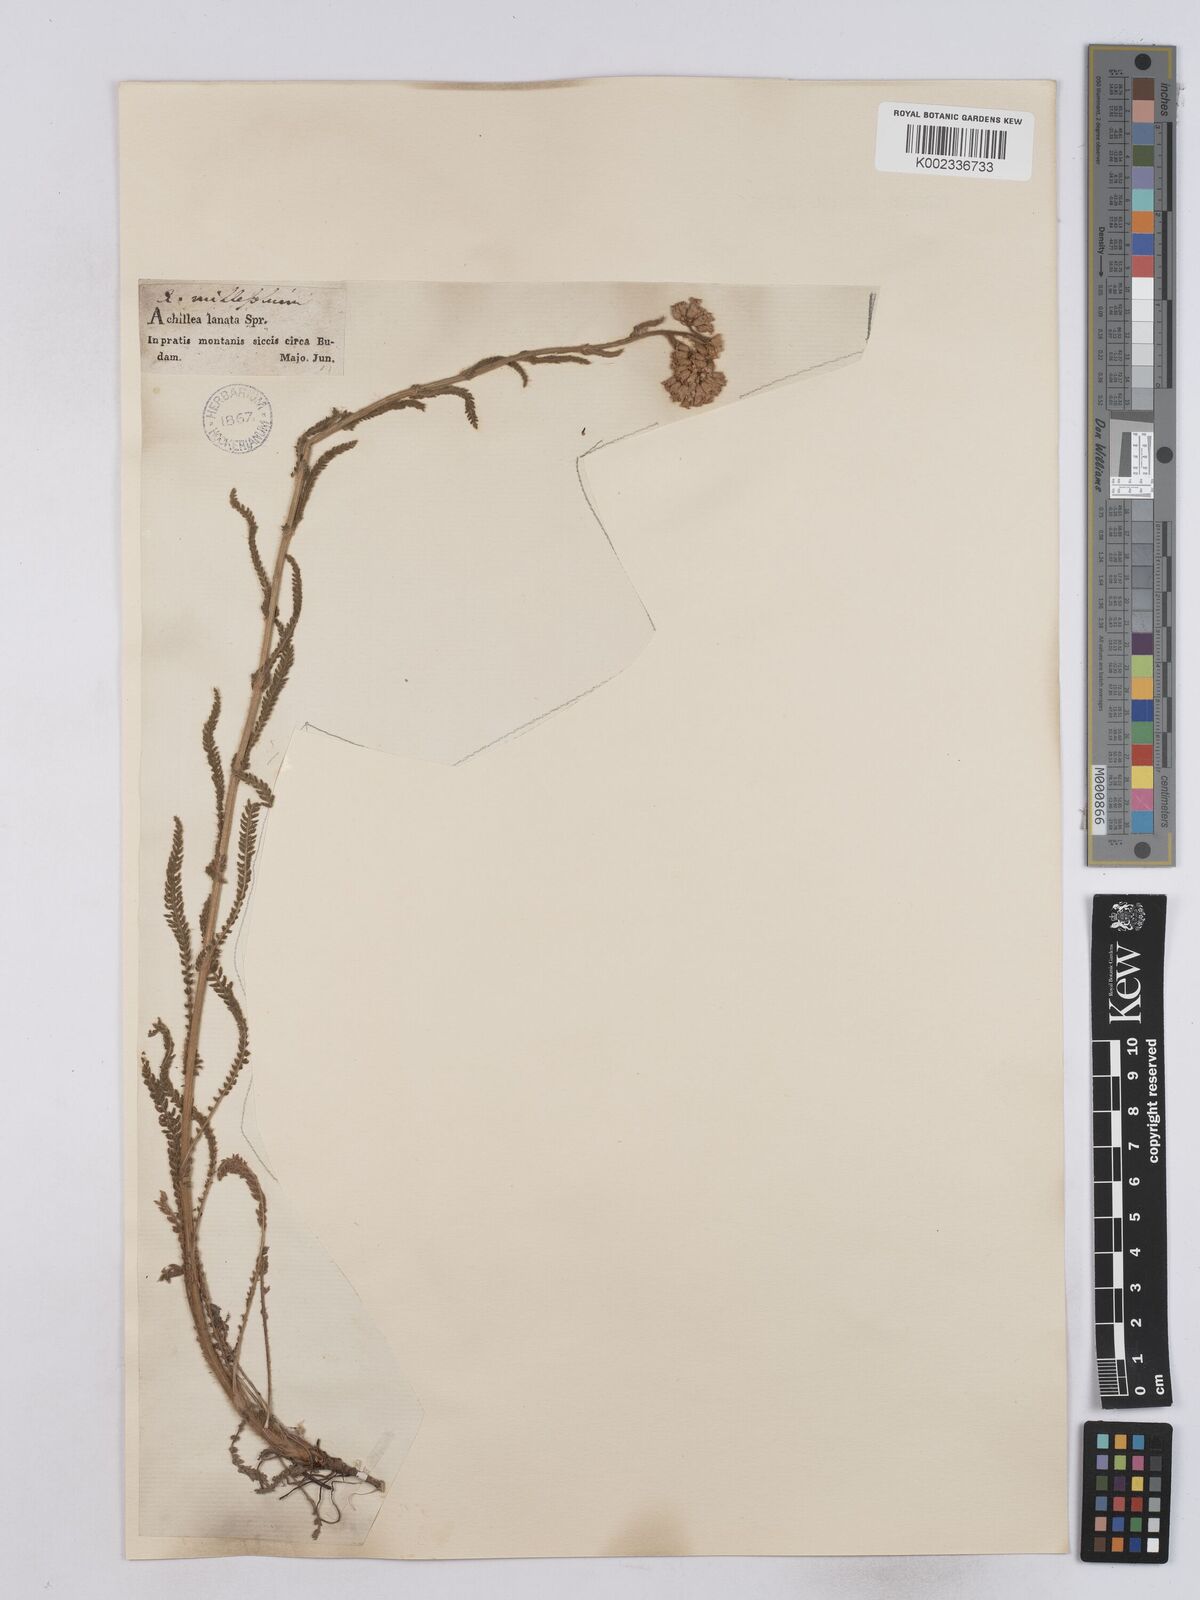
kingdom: Plantae
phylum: Tracheophyta
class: Magnoliopsida
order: Asterales
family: Asteraceae
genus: Achillea
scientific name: Achillea collina
